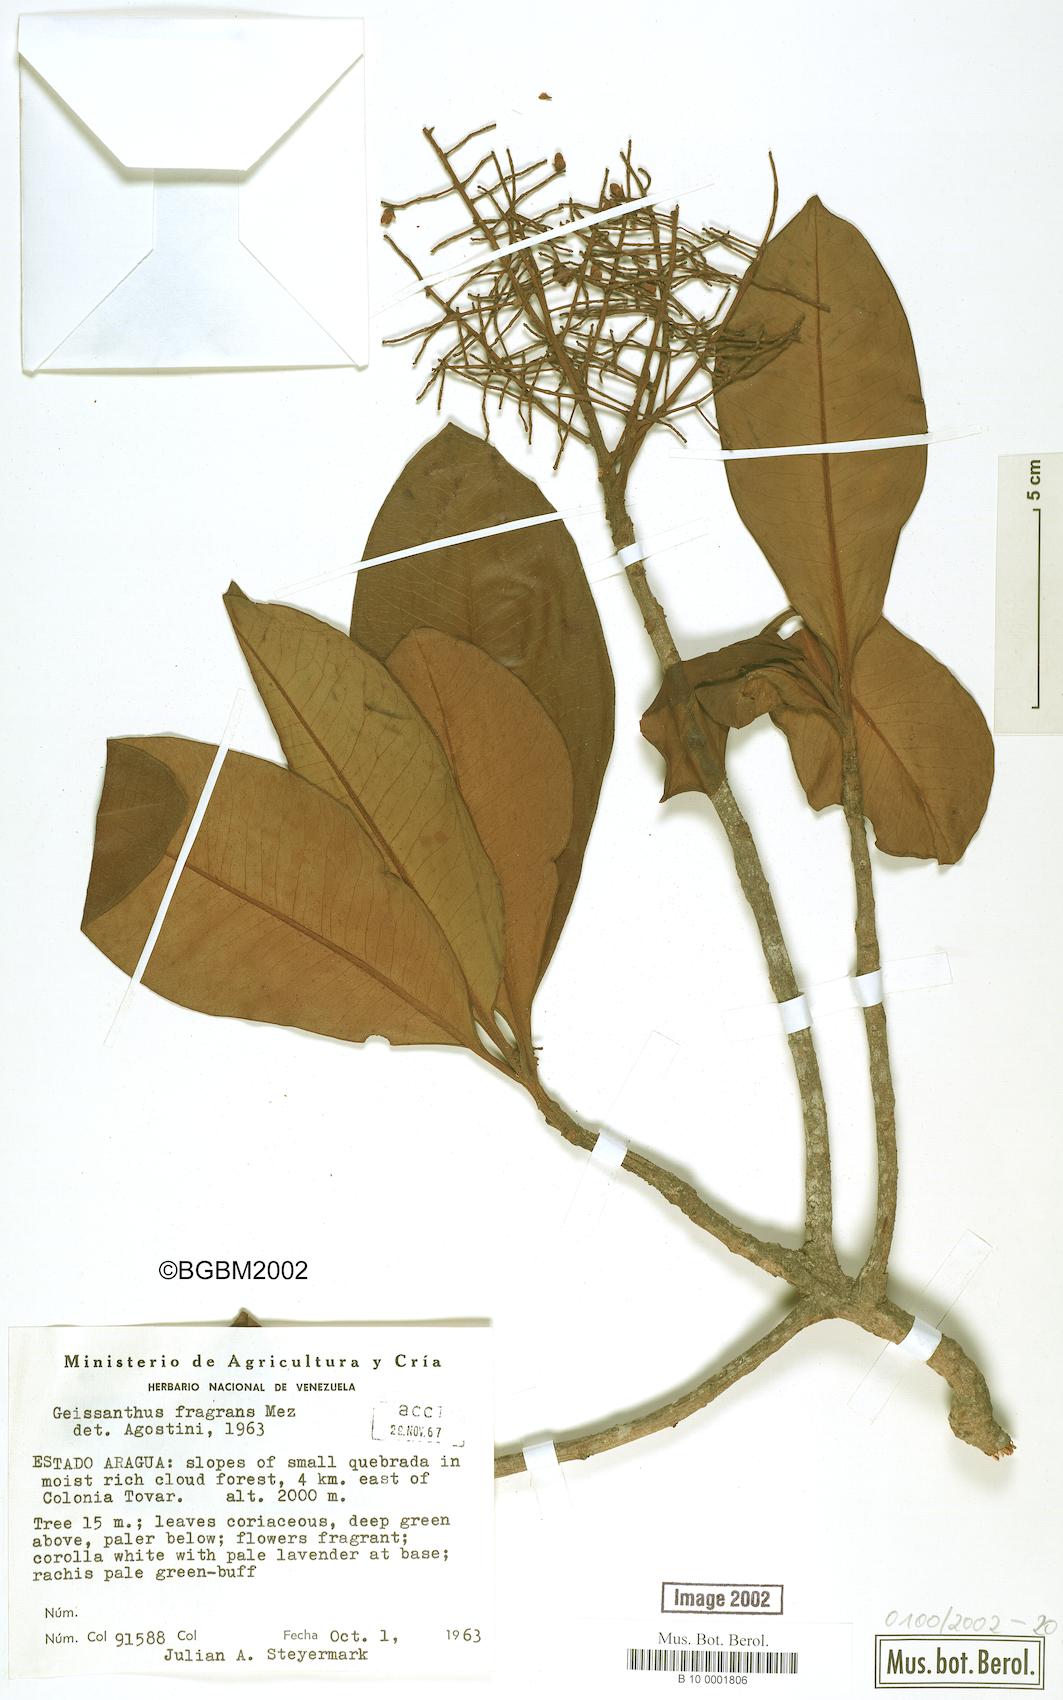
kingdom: Plantae
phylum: Tracheophyta
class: Magnoliopsida
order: Ericales
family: Primulaceae
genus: Geissanthus
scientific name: Geissanthus fragrans
